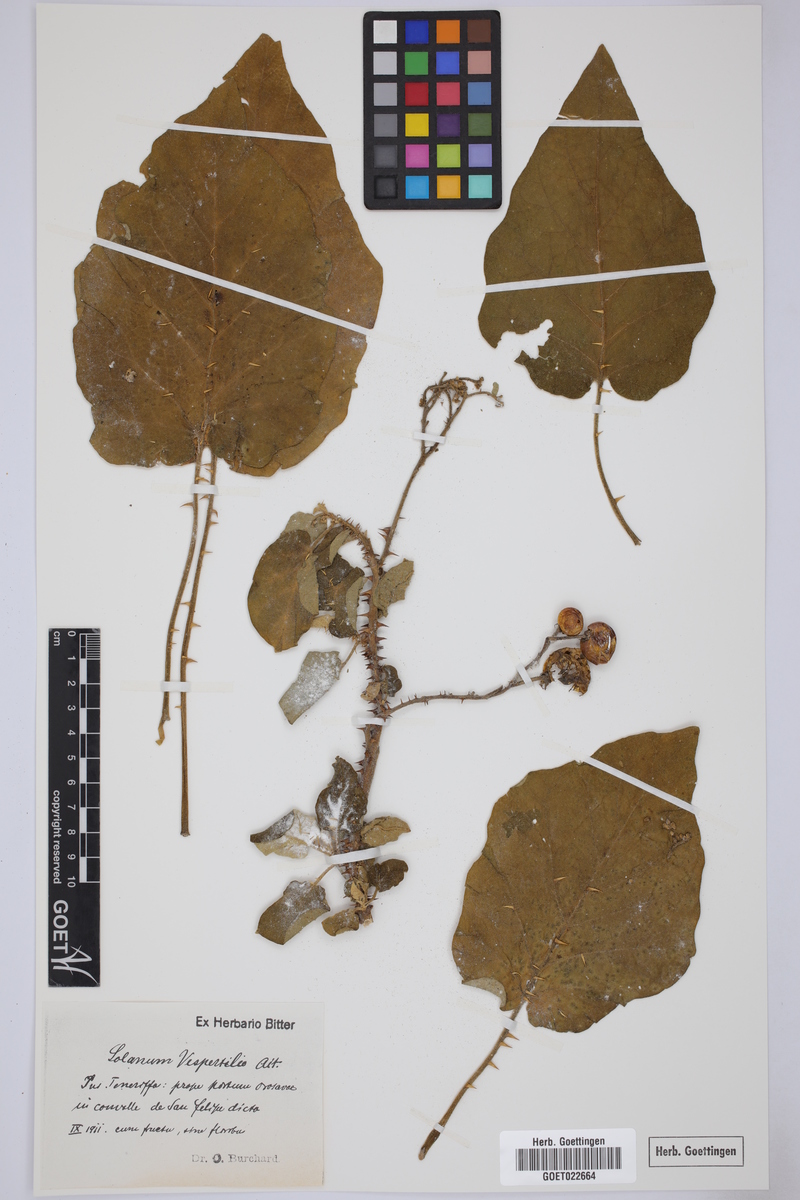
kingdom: Plantae
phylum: Tracheophyta
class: Magnoliopsida
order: Solanales
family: Solanaceae
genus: Solanum
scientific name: Solanum vespertilio
